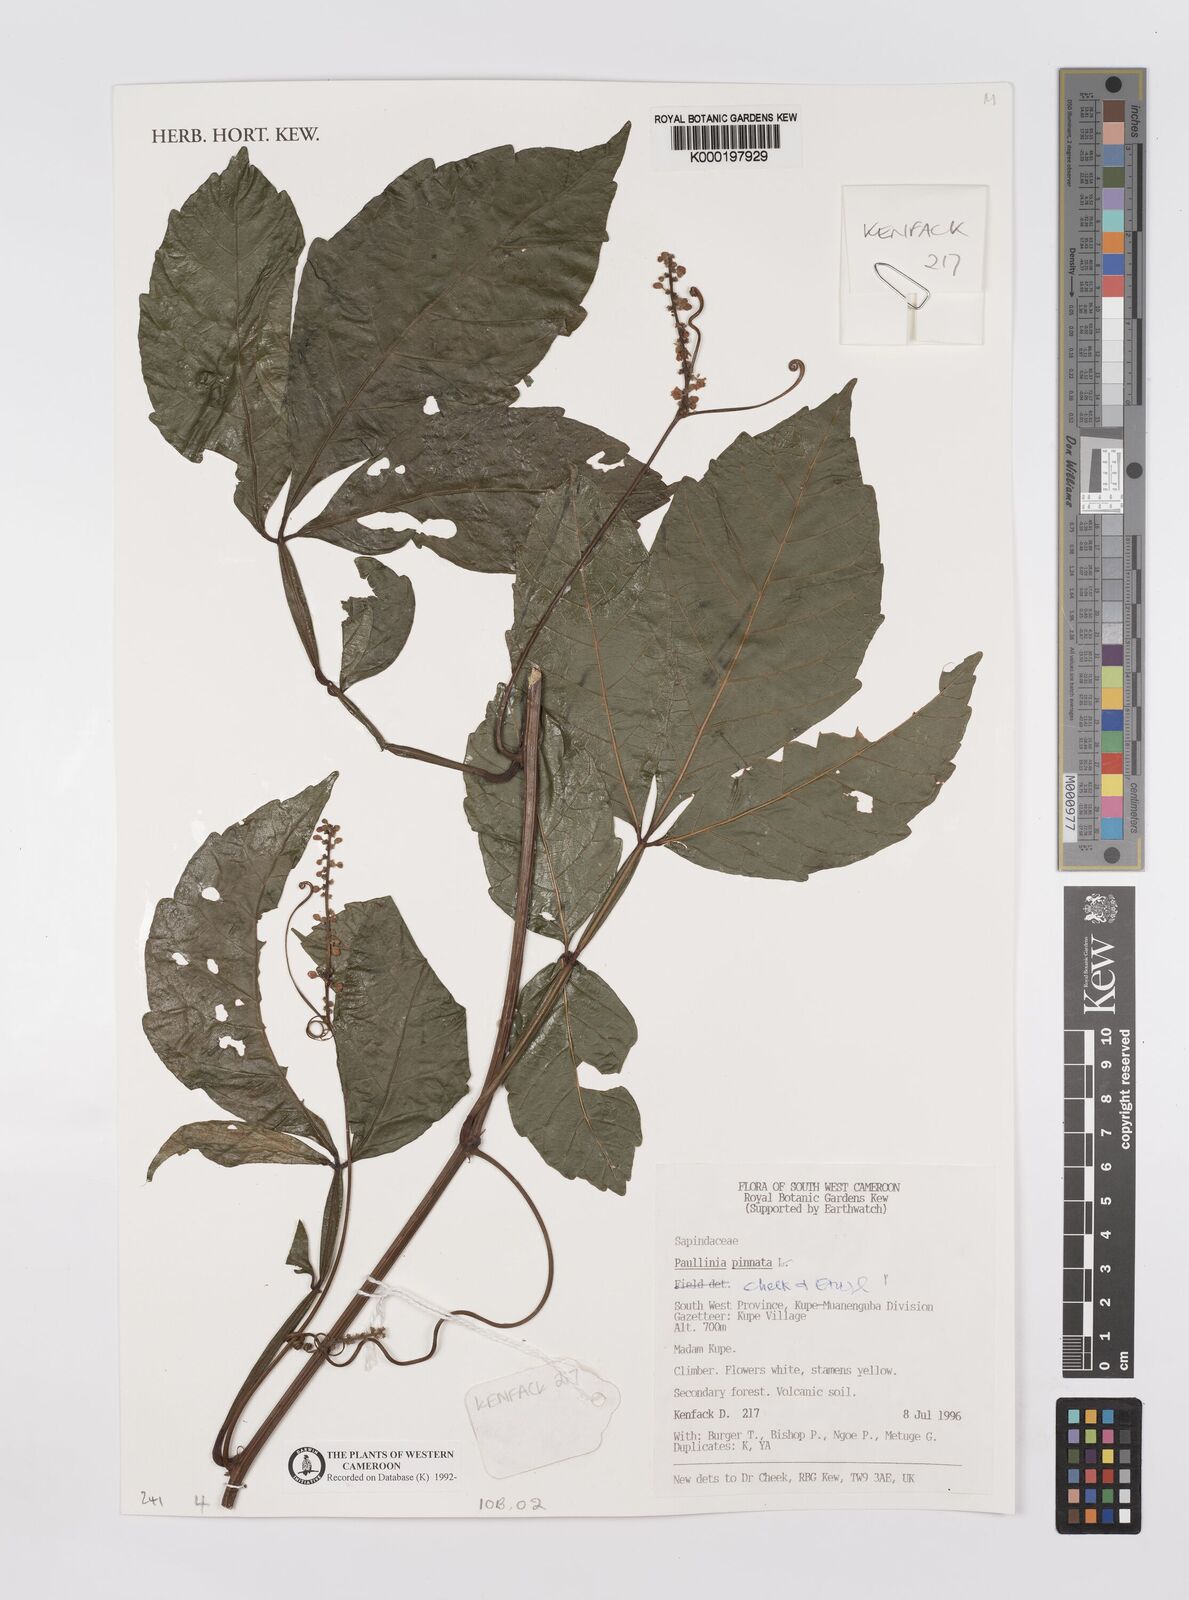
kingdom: Plantae
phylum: Tracheophyta
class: Magnoliopsida
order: Sapindales
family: Sapindaceae
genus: Paullinia
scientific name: Paullinia pinnata
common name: Barbasco
